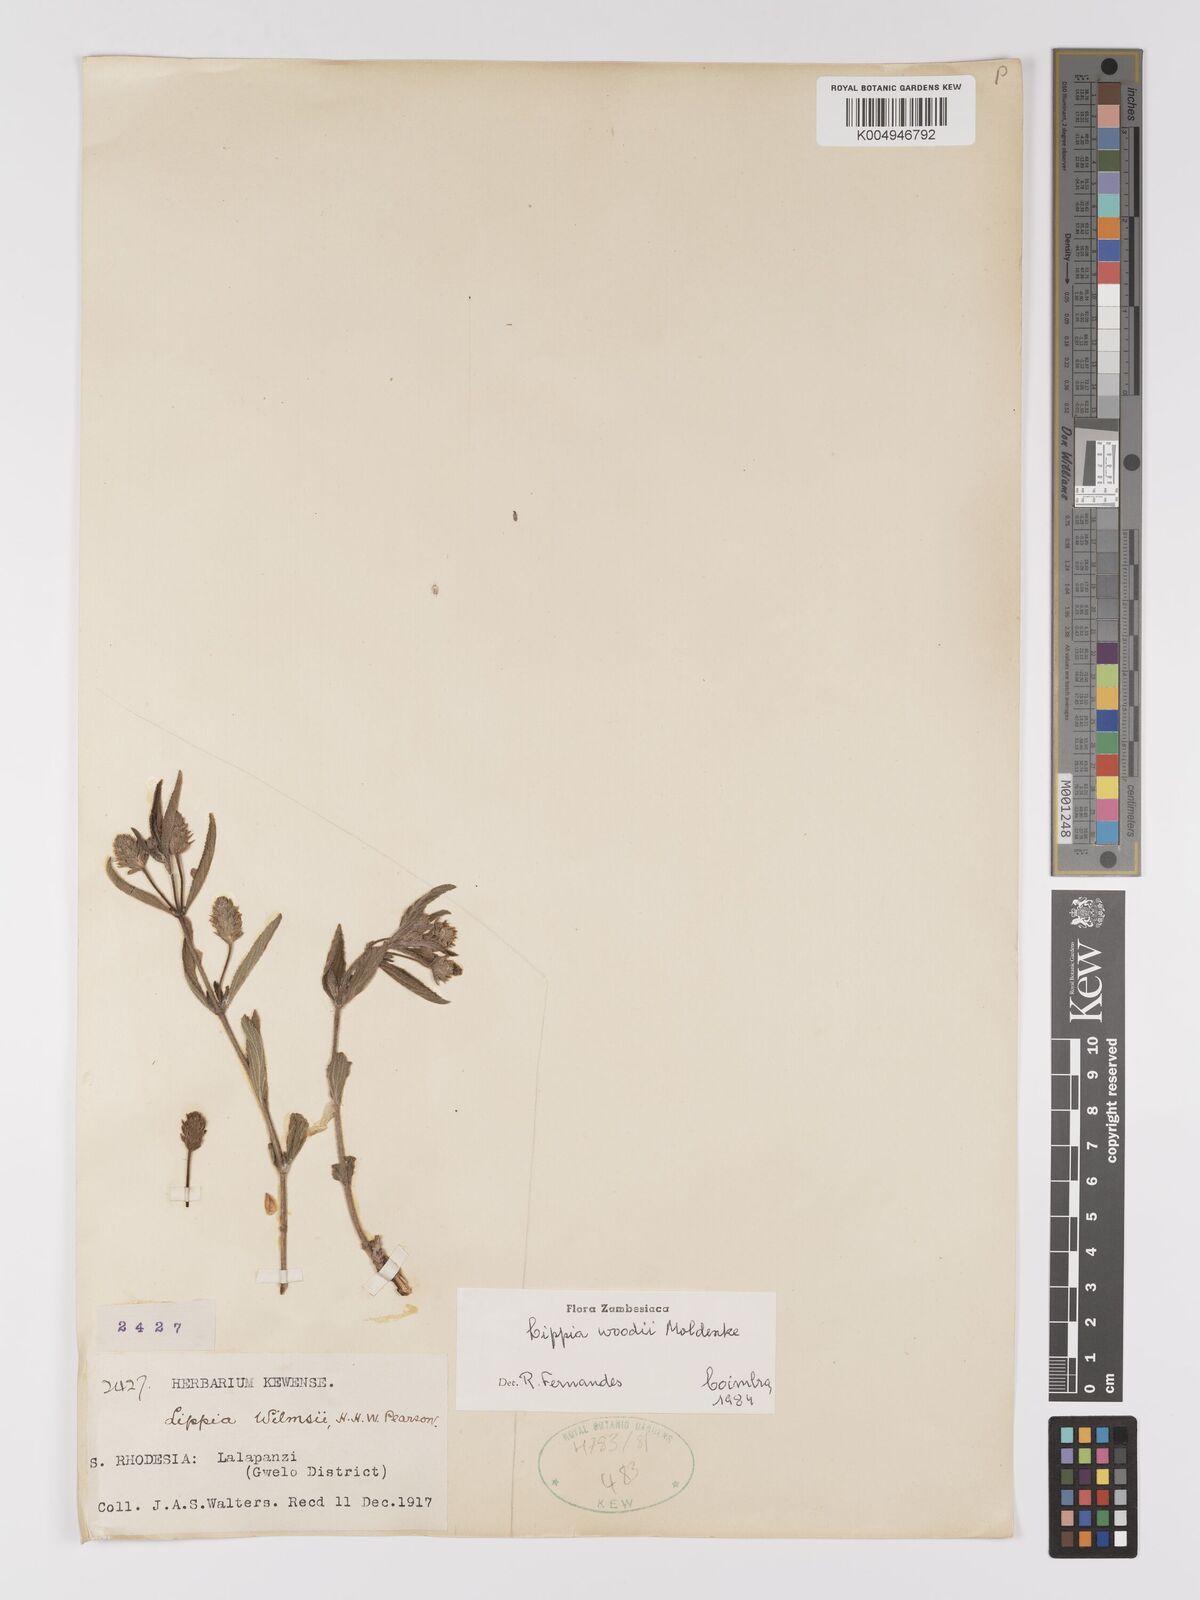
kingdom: Plantae
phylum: Tracheophyta
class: Magnoliopsida
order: Lamiales
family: Verbenaceae
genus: Lippia
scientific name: Lippia woodii
